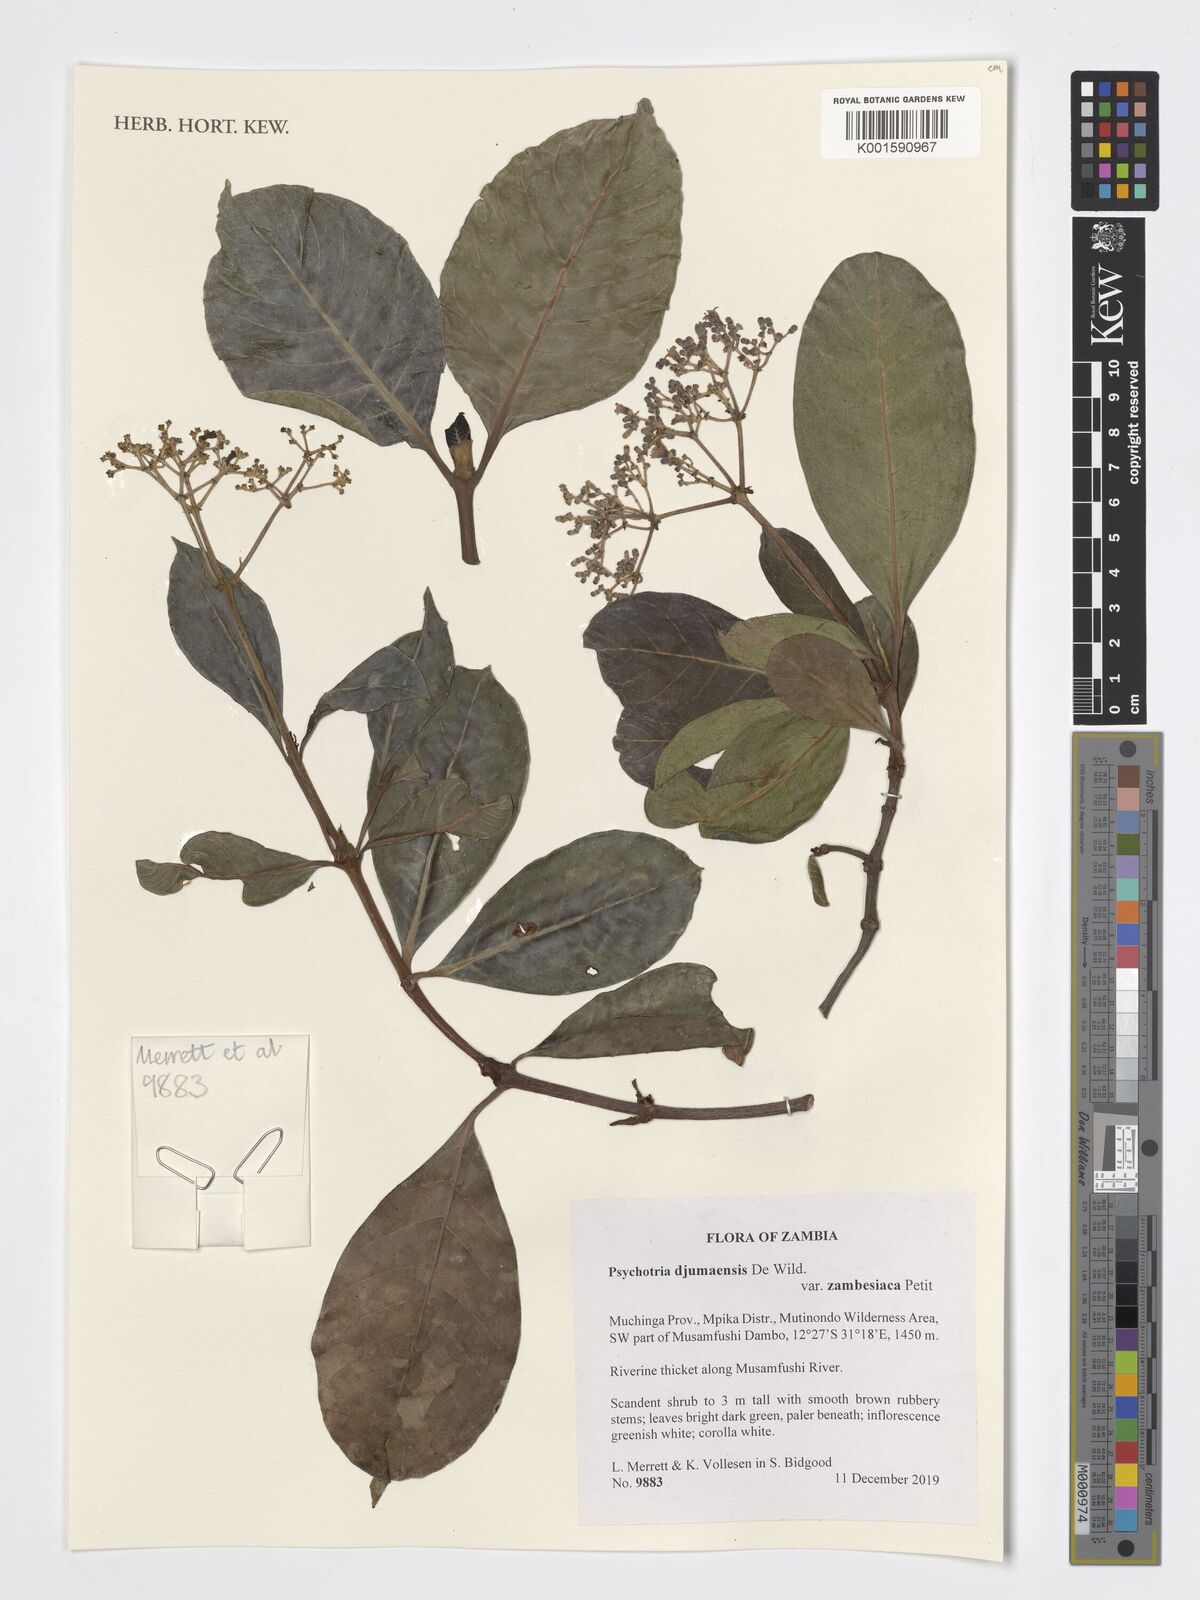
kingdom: Plantae
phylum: Tracheophyta
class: Magnoliopsida
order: Gentianales
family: Rubiaceae
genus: Psychotria
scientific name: Psychotria djumaensis
